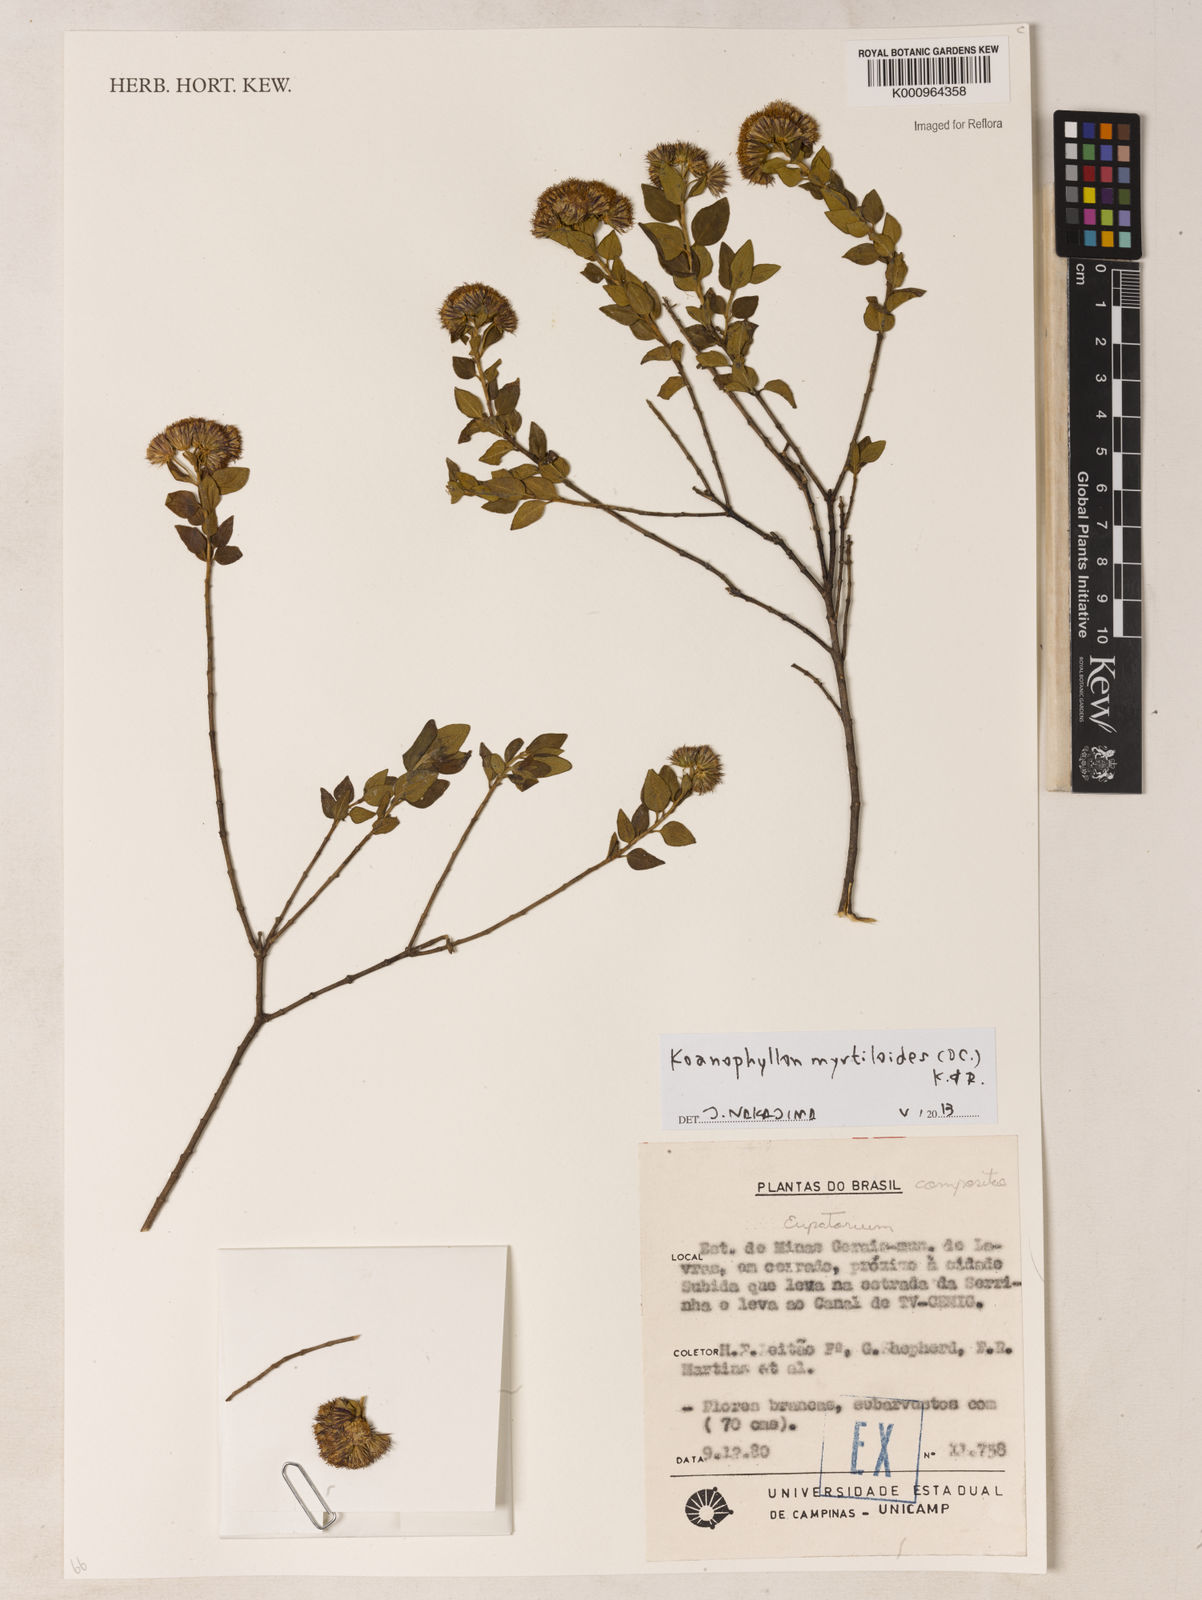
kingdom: Plantae
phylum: Tracheophyta
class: Magnoliopsida
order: Asterales
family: Asteraceae
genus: Koanophyllon
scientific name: Koanophyllon myrtilloides
